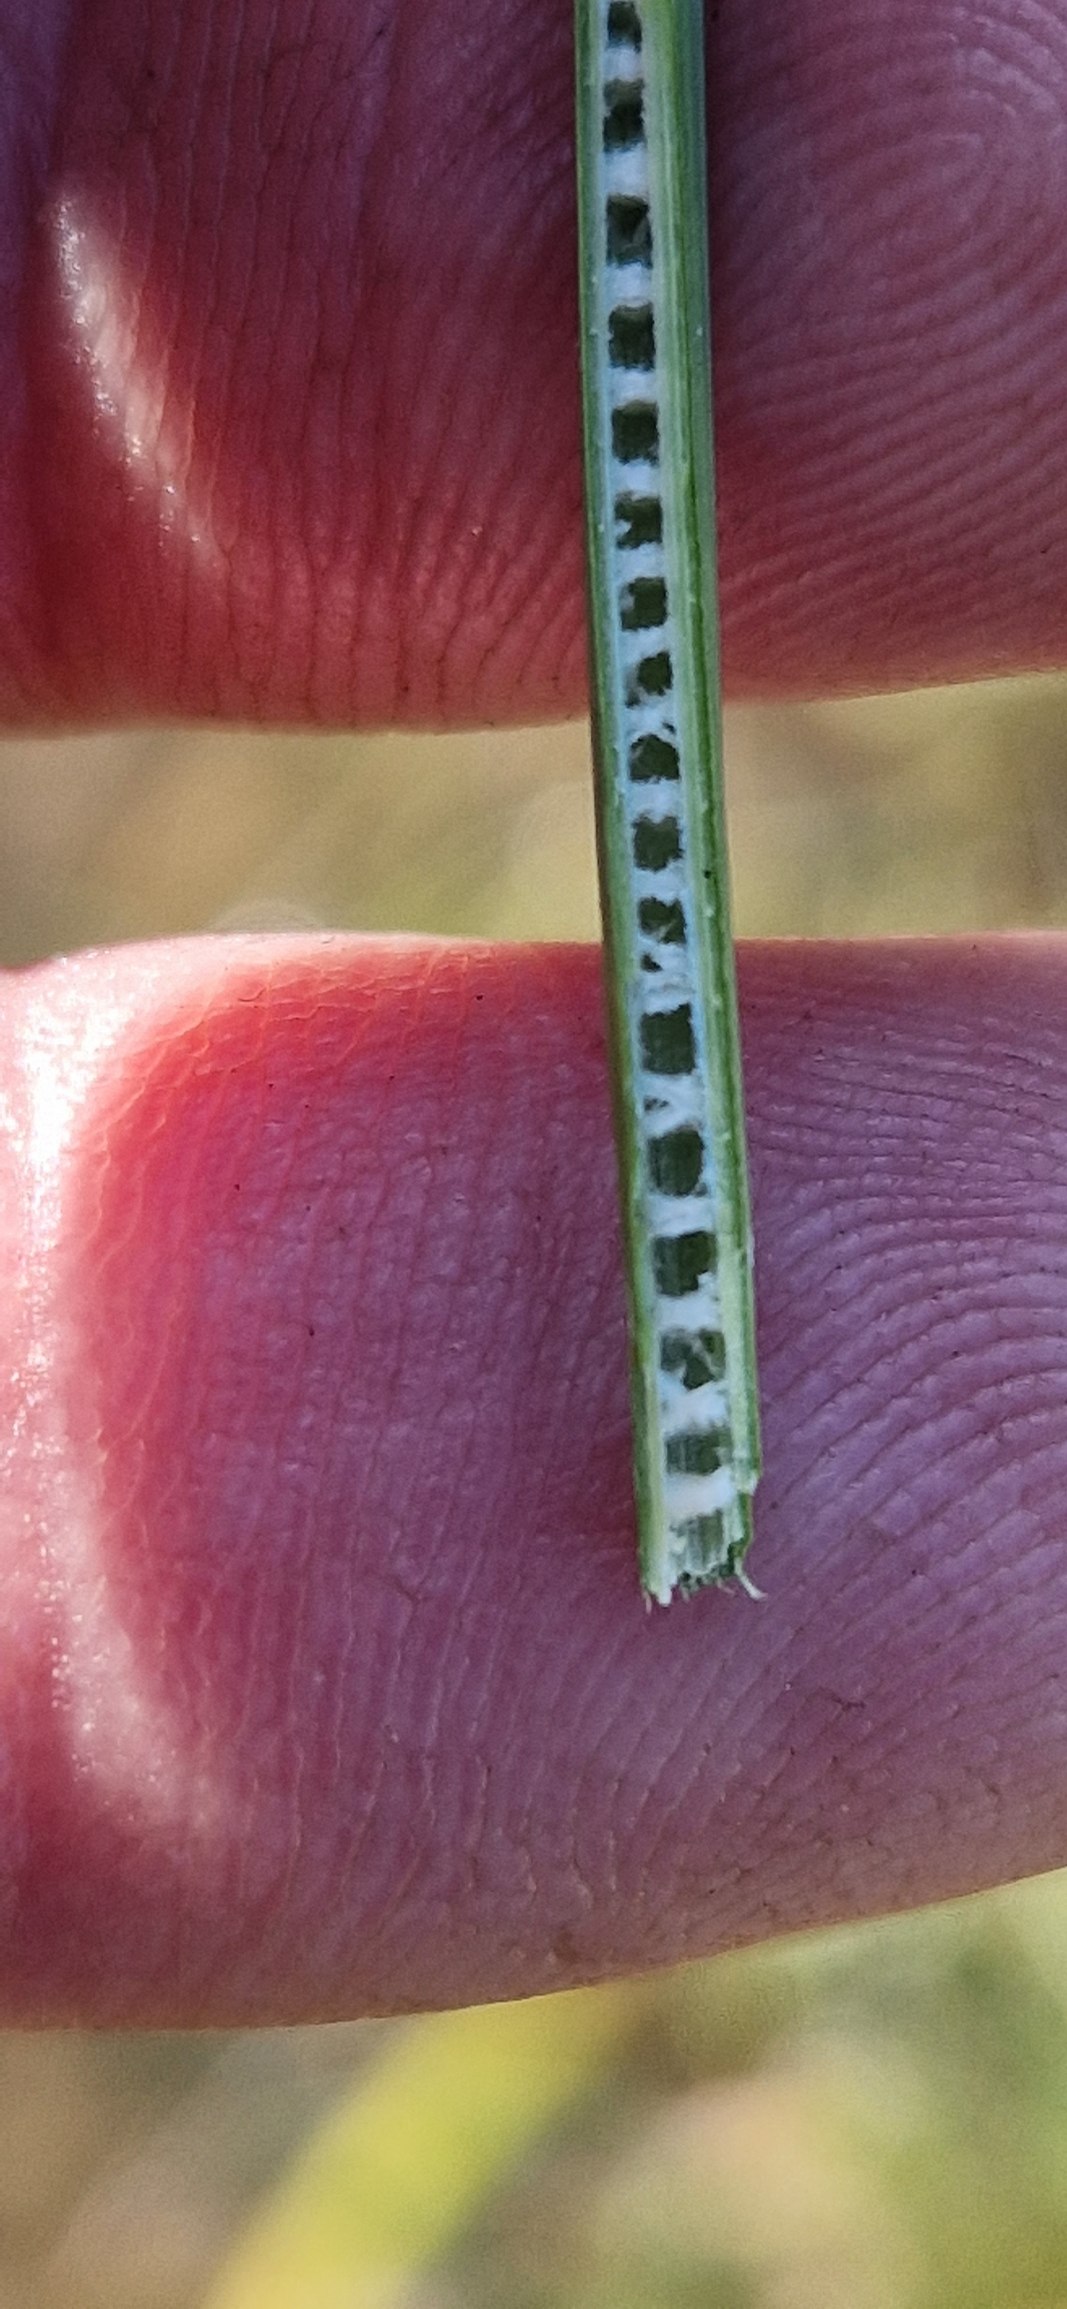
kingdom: Plantae
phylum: Tracheophyta
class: Liliopsida
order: Poales
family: Juncaceae
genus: Juncus
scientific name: Juncus inflexus
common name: Blågrå siv
